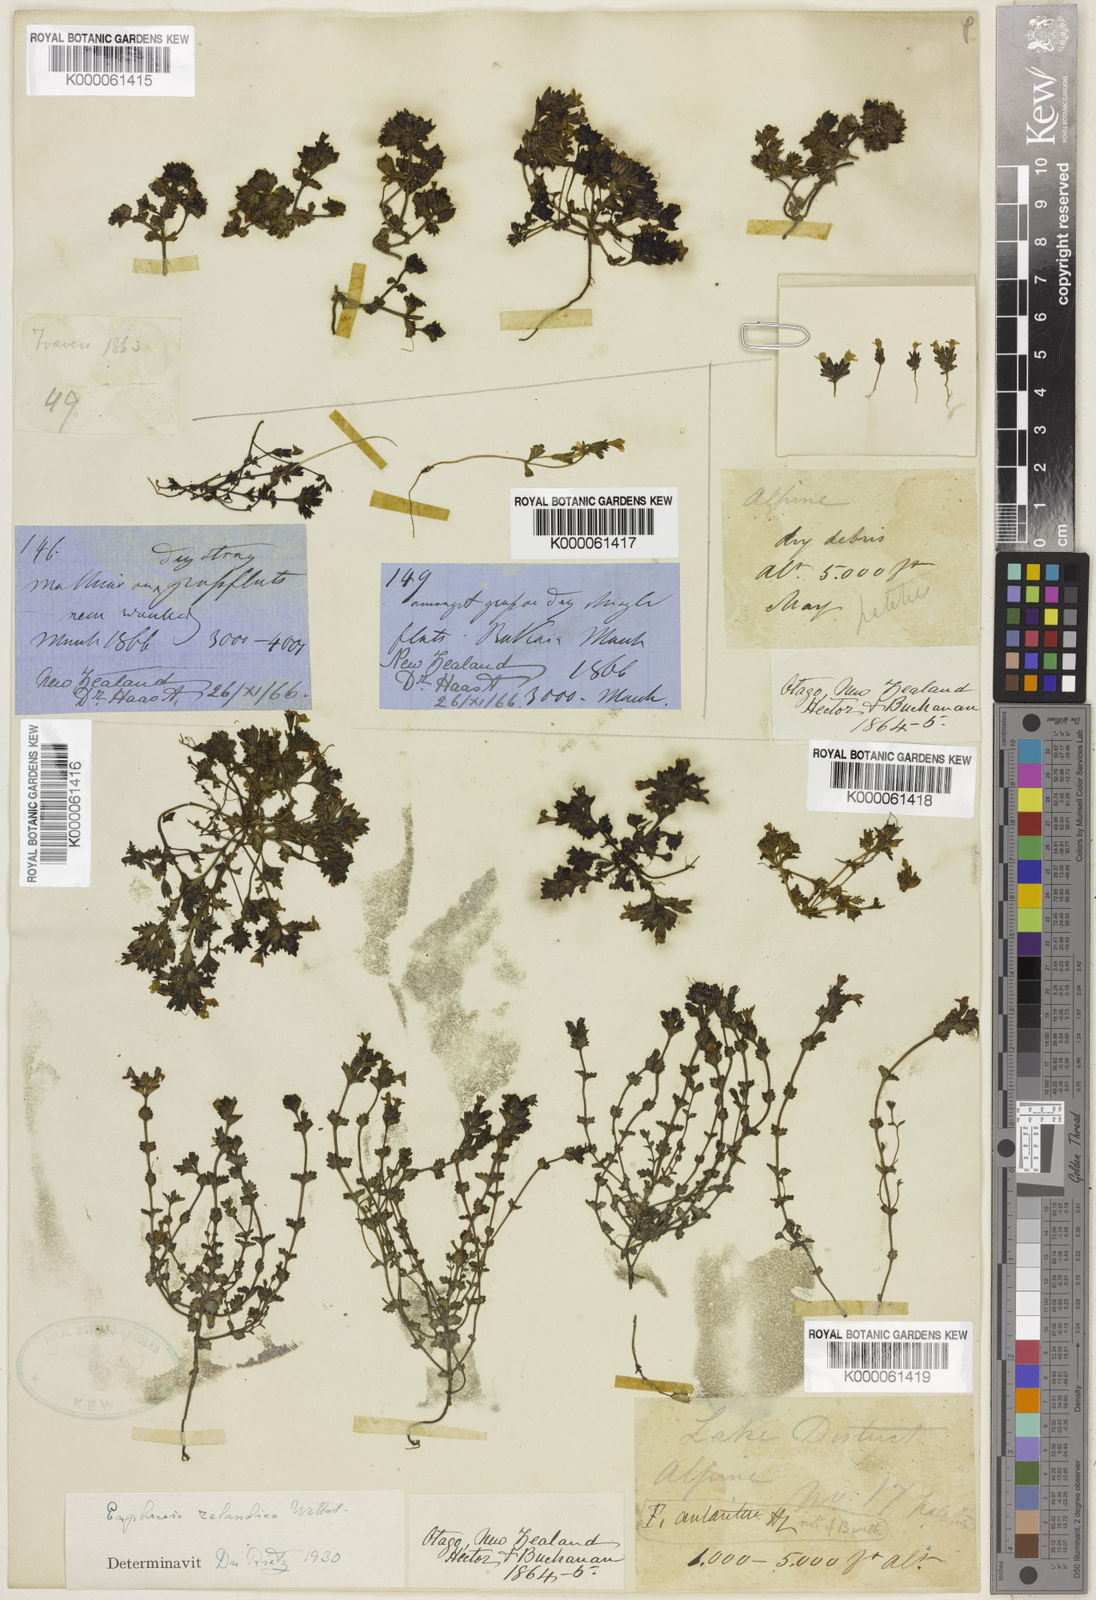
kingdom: Plantae
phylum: Tracheophyta
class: Magnoliopsida
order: Lamiales
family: Orobanchaceae
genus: Euphrasia
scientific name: Euphrasia zelandica
